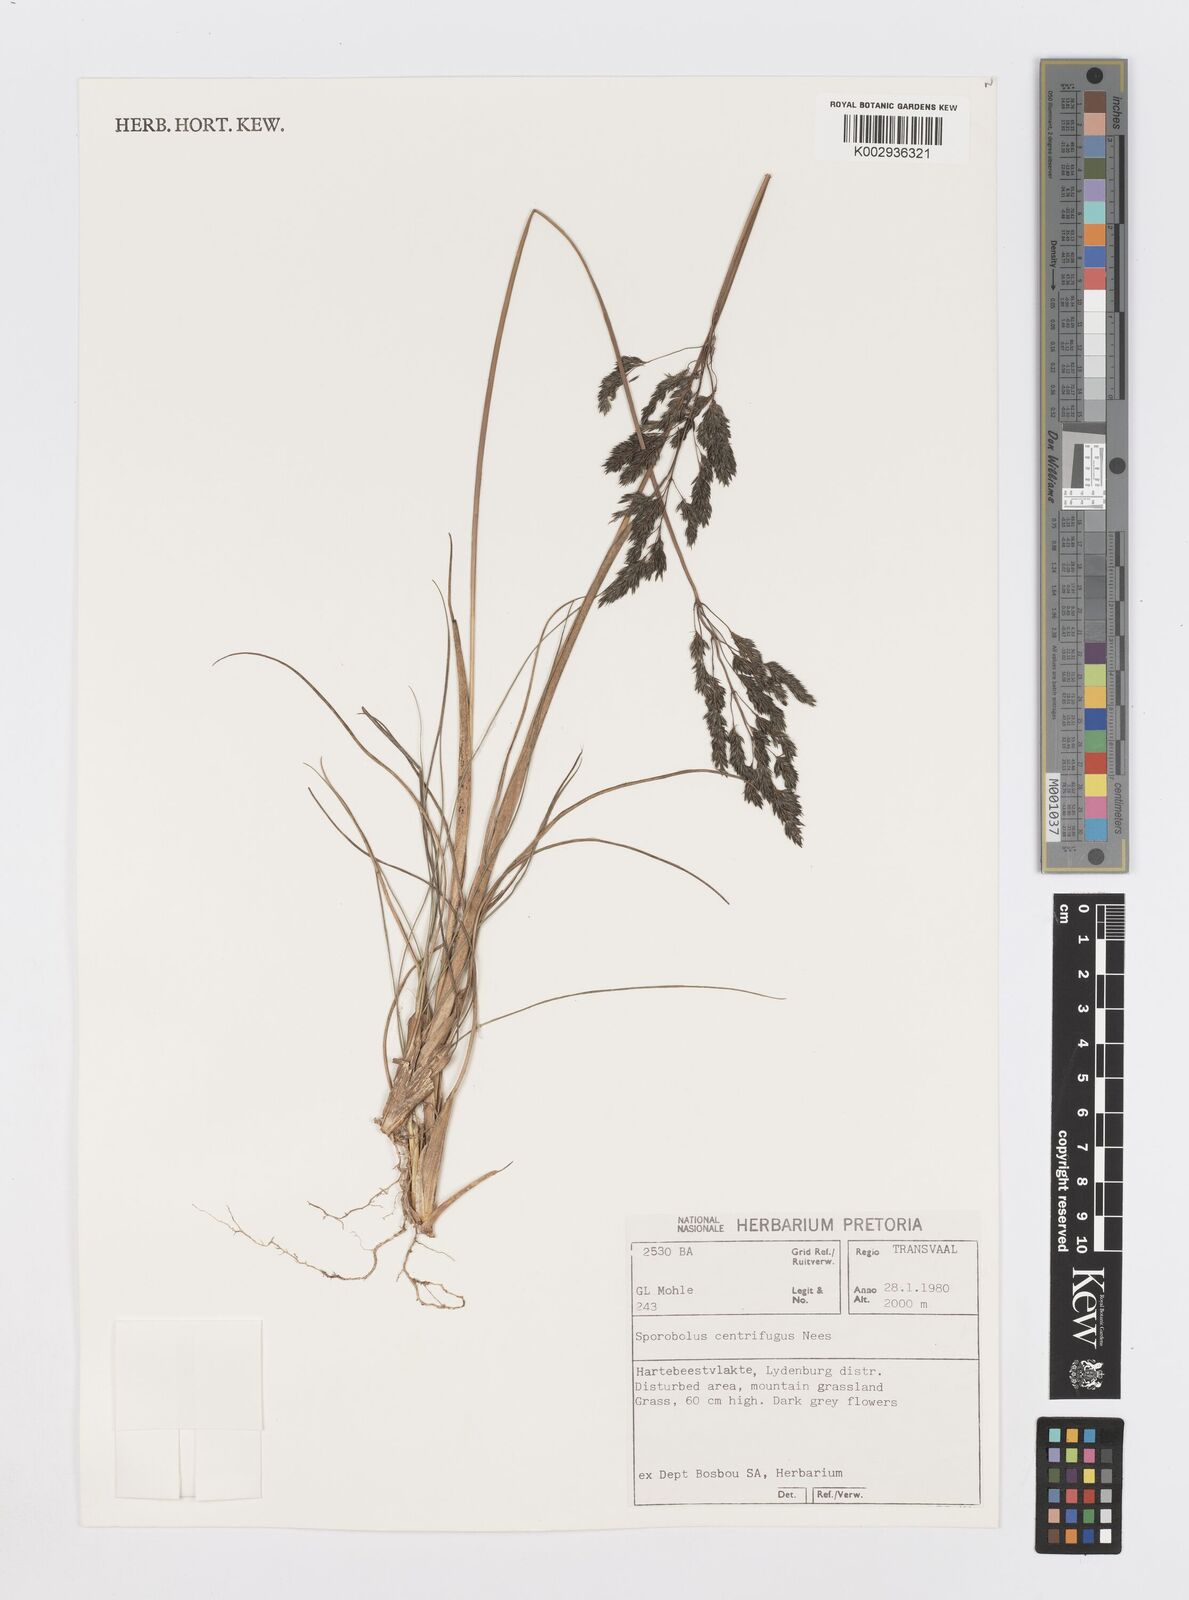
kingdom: Plantae
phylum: Tracheophyta
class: Liliopsida
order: Poales
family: Poaceae
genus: Sporobolus
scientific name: Sporobolus centrifugus
